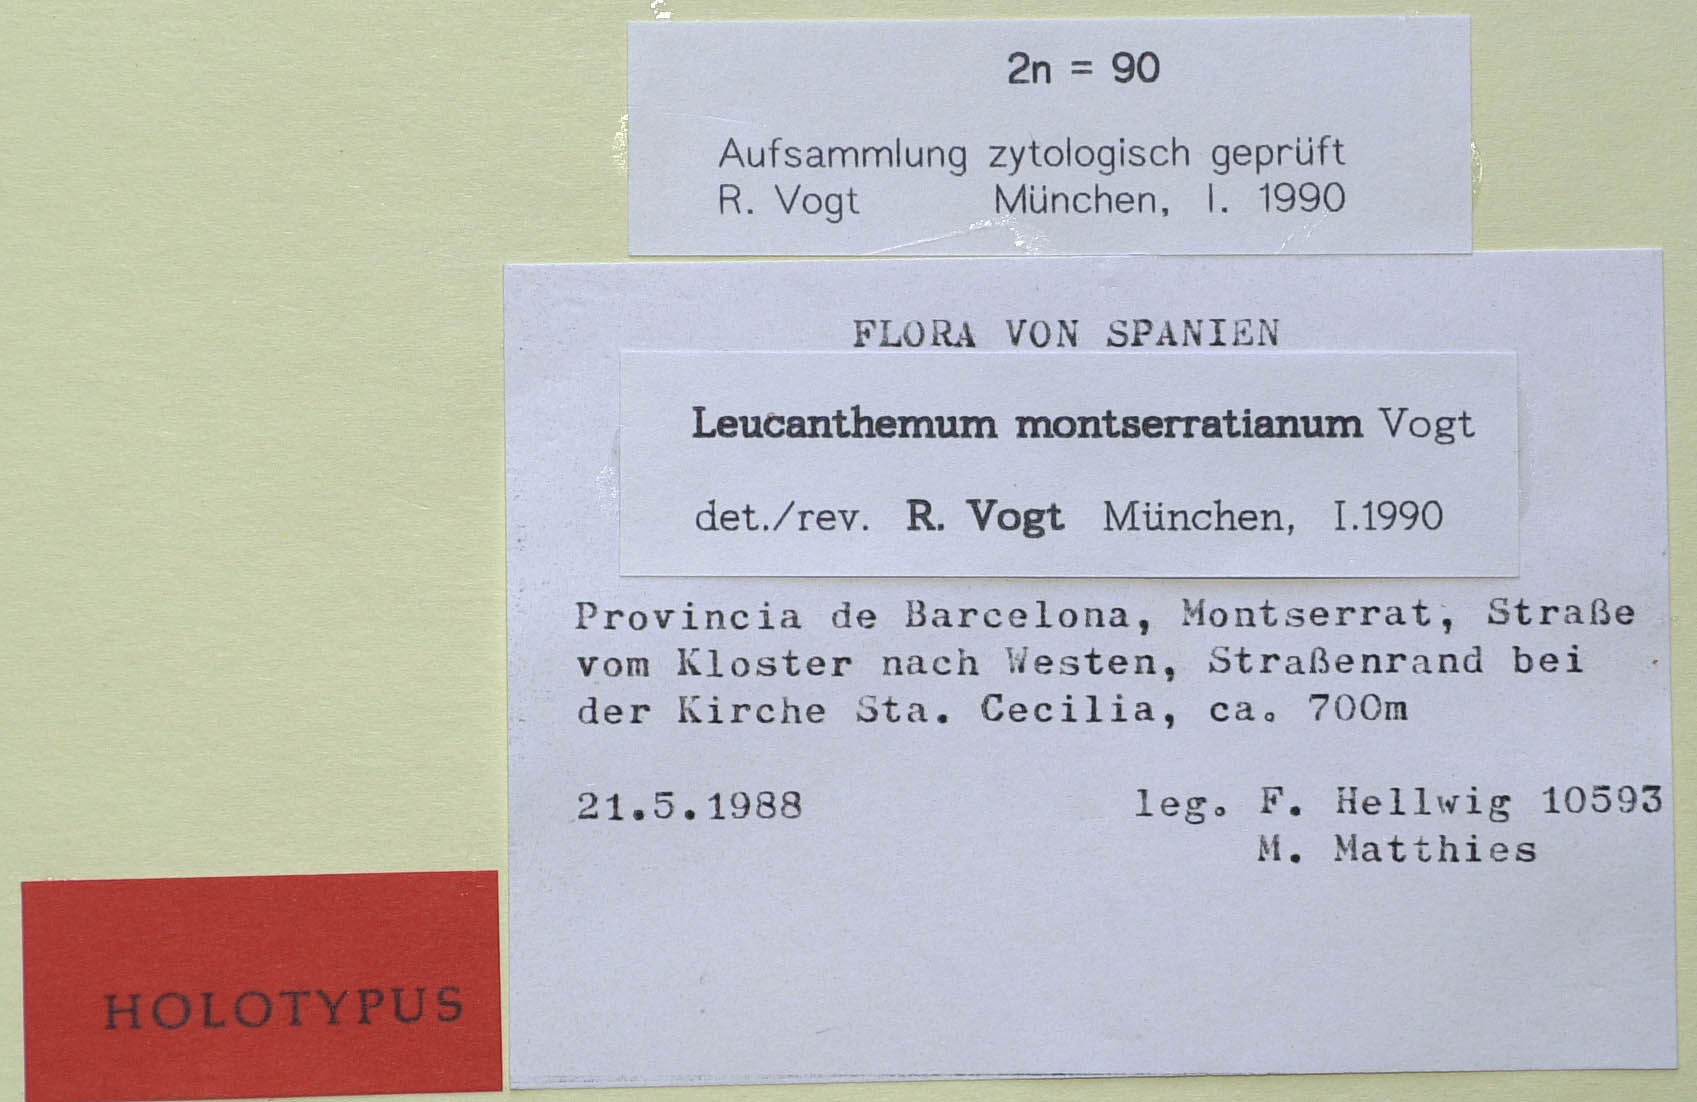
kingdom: Plantae
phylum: Tracheophyta
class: Magnoliopsida
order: Asterales
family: Asteraceae
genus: Leucanthemum
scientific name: Leucanthemum montserratianum
